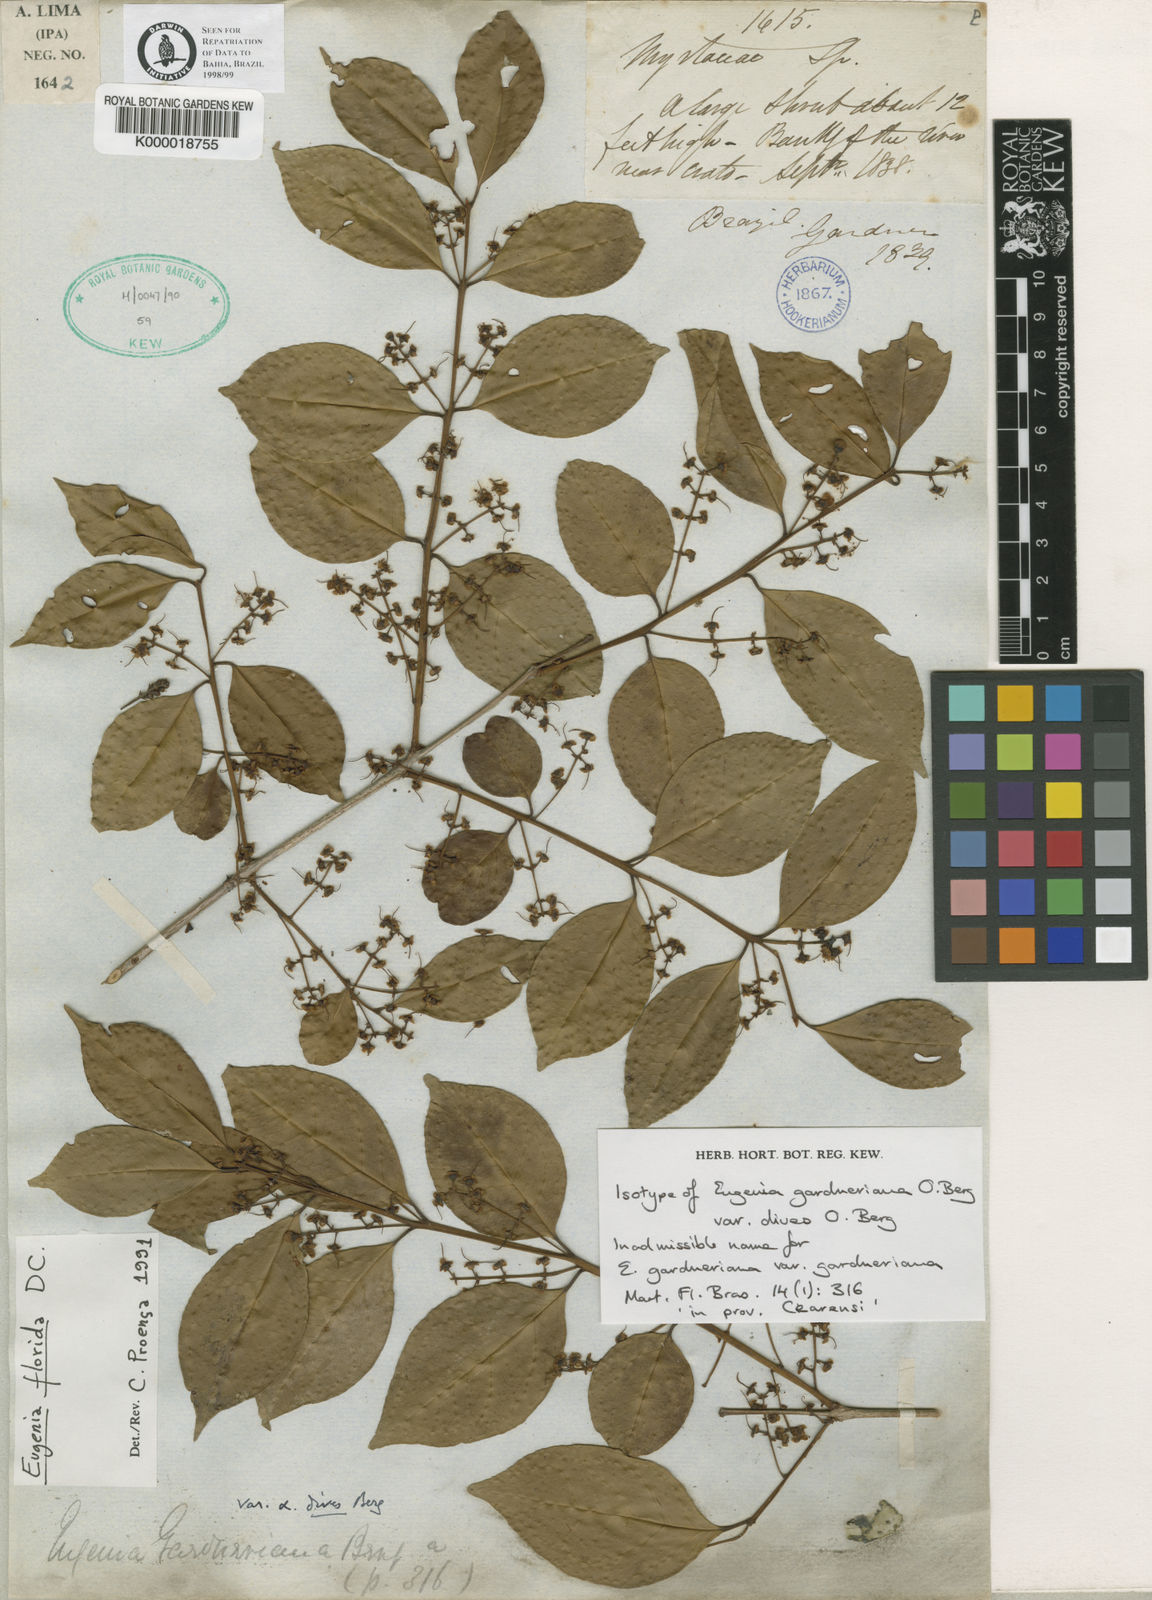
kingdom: Plantae
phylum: Tracheophyta
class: Magnoliopsida
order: Myrtales
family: Myrtaceae
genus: Eugenia
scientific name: Eugenia florida
